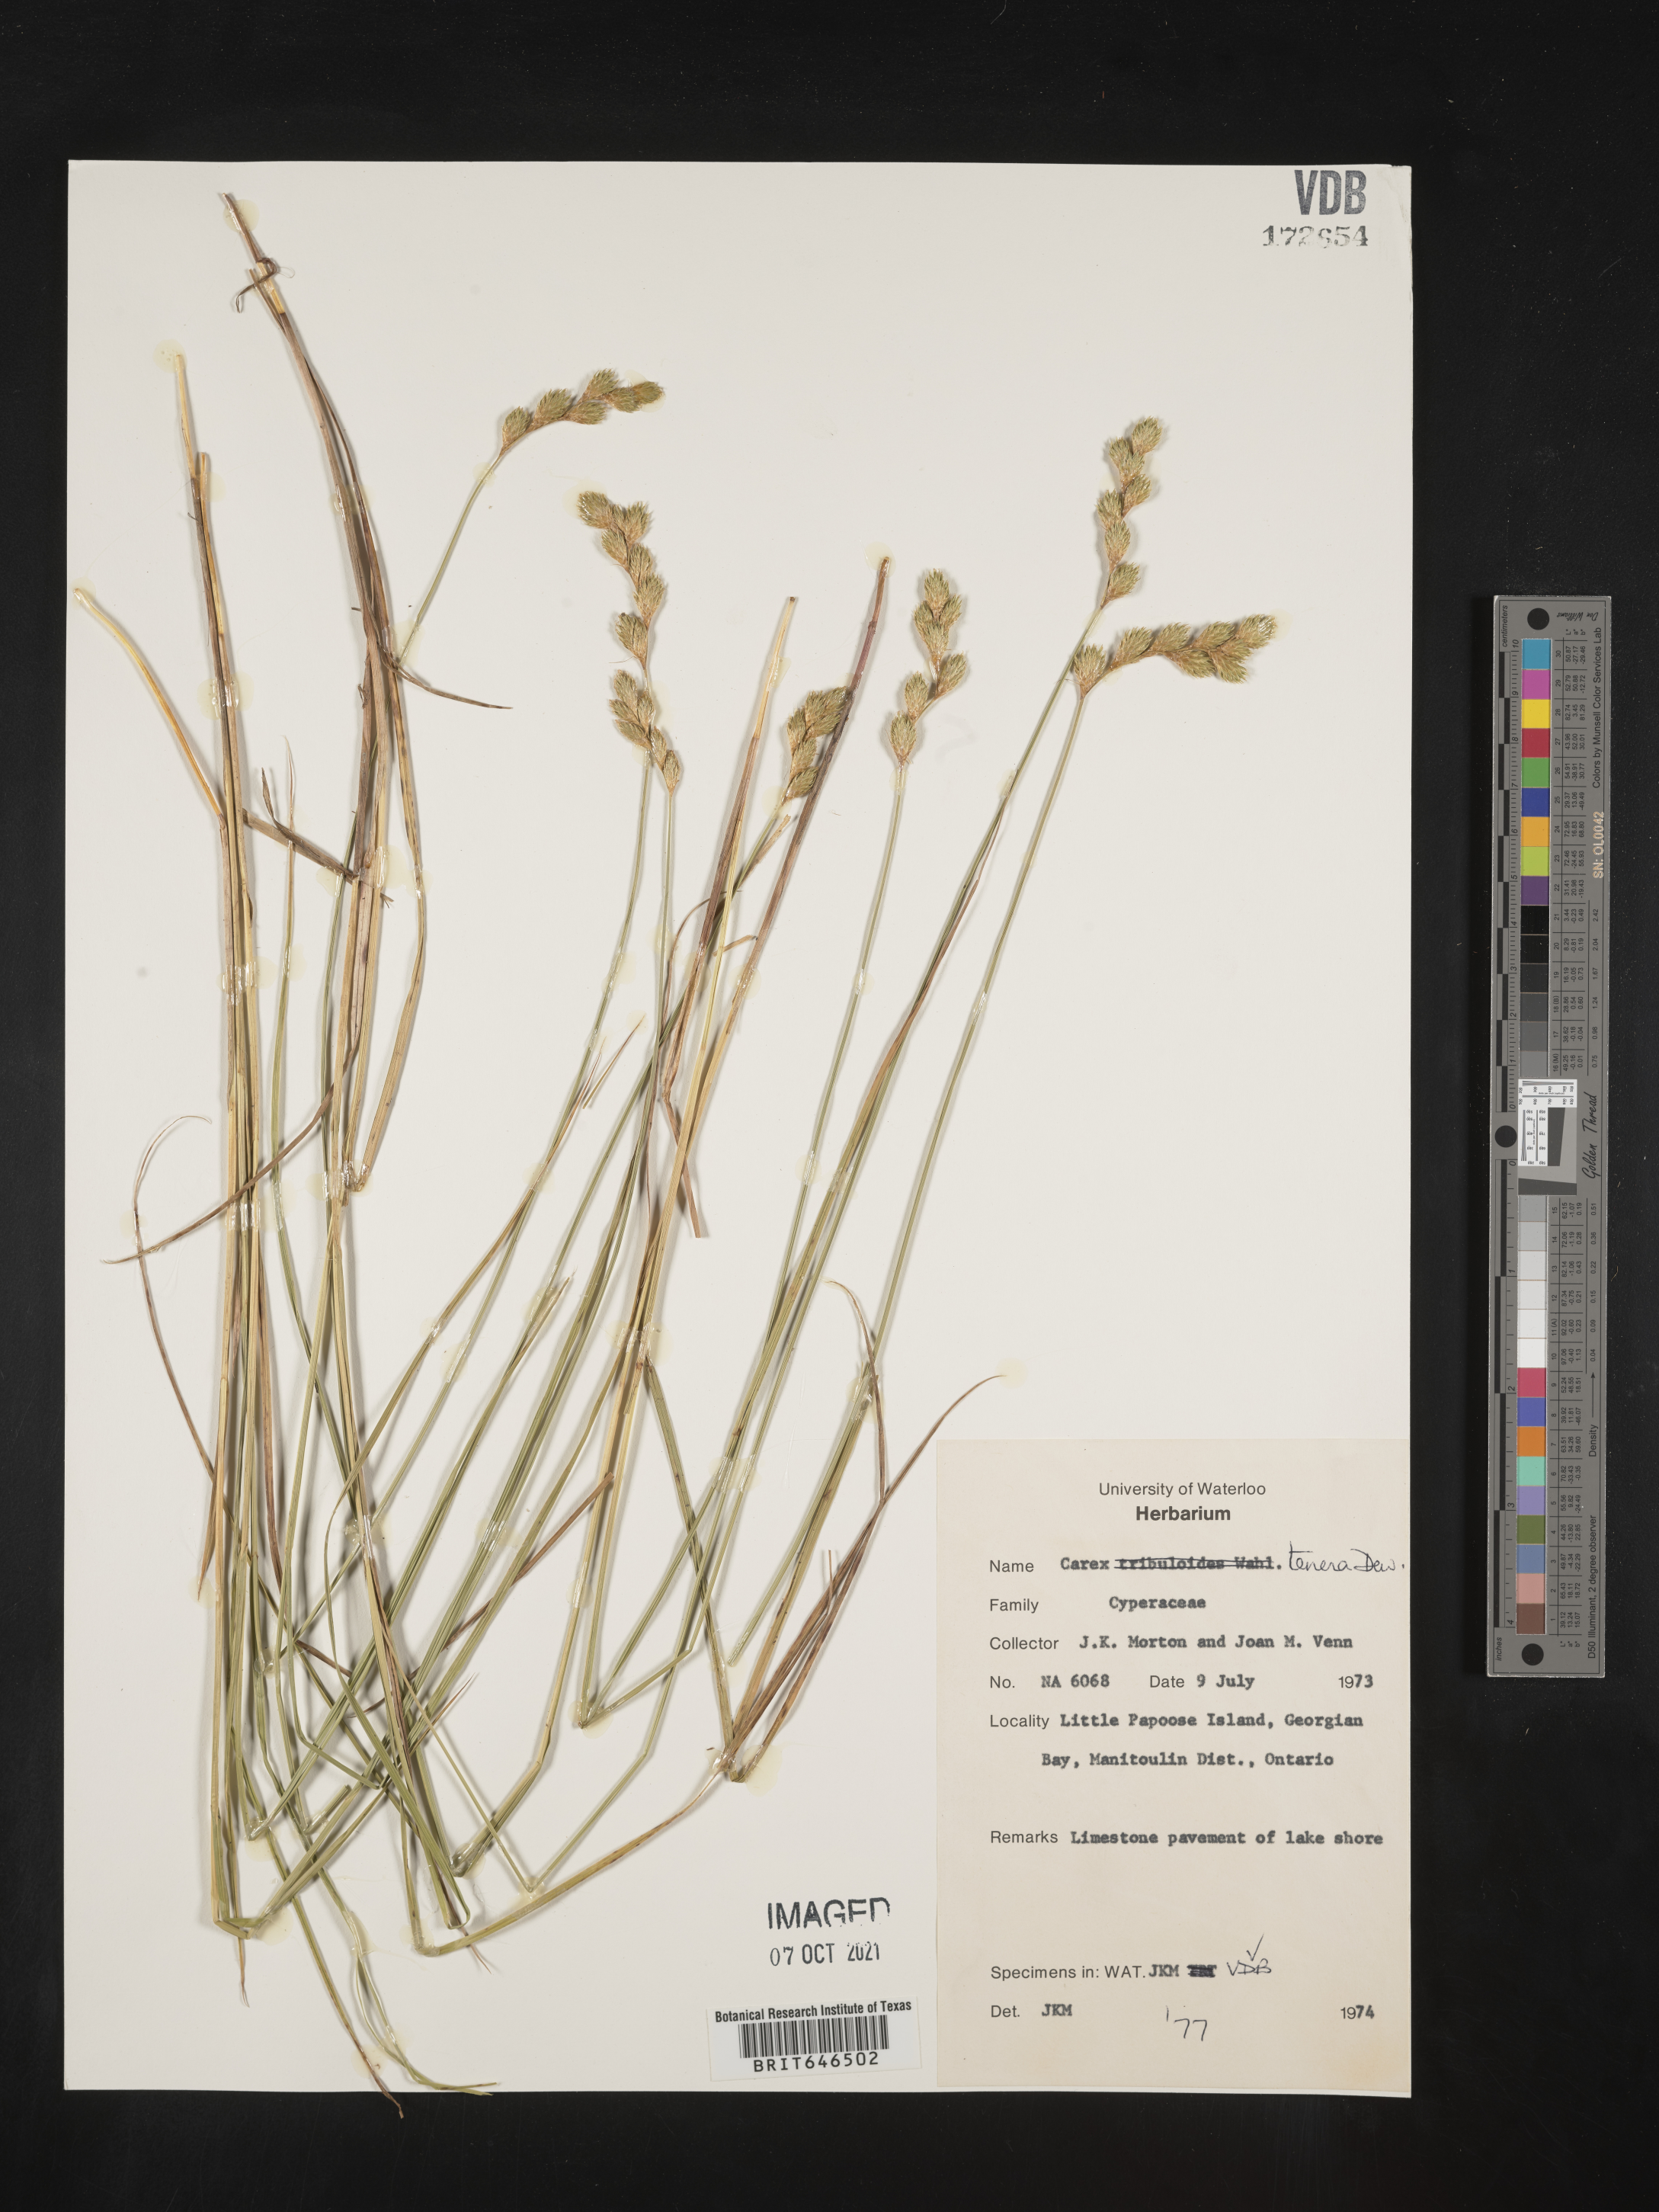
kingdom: Plantae
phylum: Tracheophyta
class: Liliopsida
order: Poales
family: Cyperaceae
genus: Carex
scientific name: Carex tenera
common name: Broad-fruited sedge
